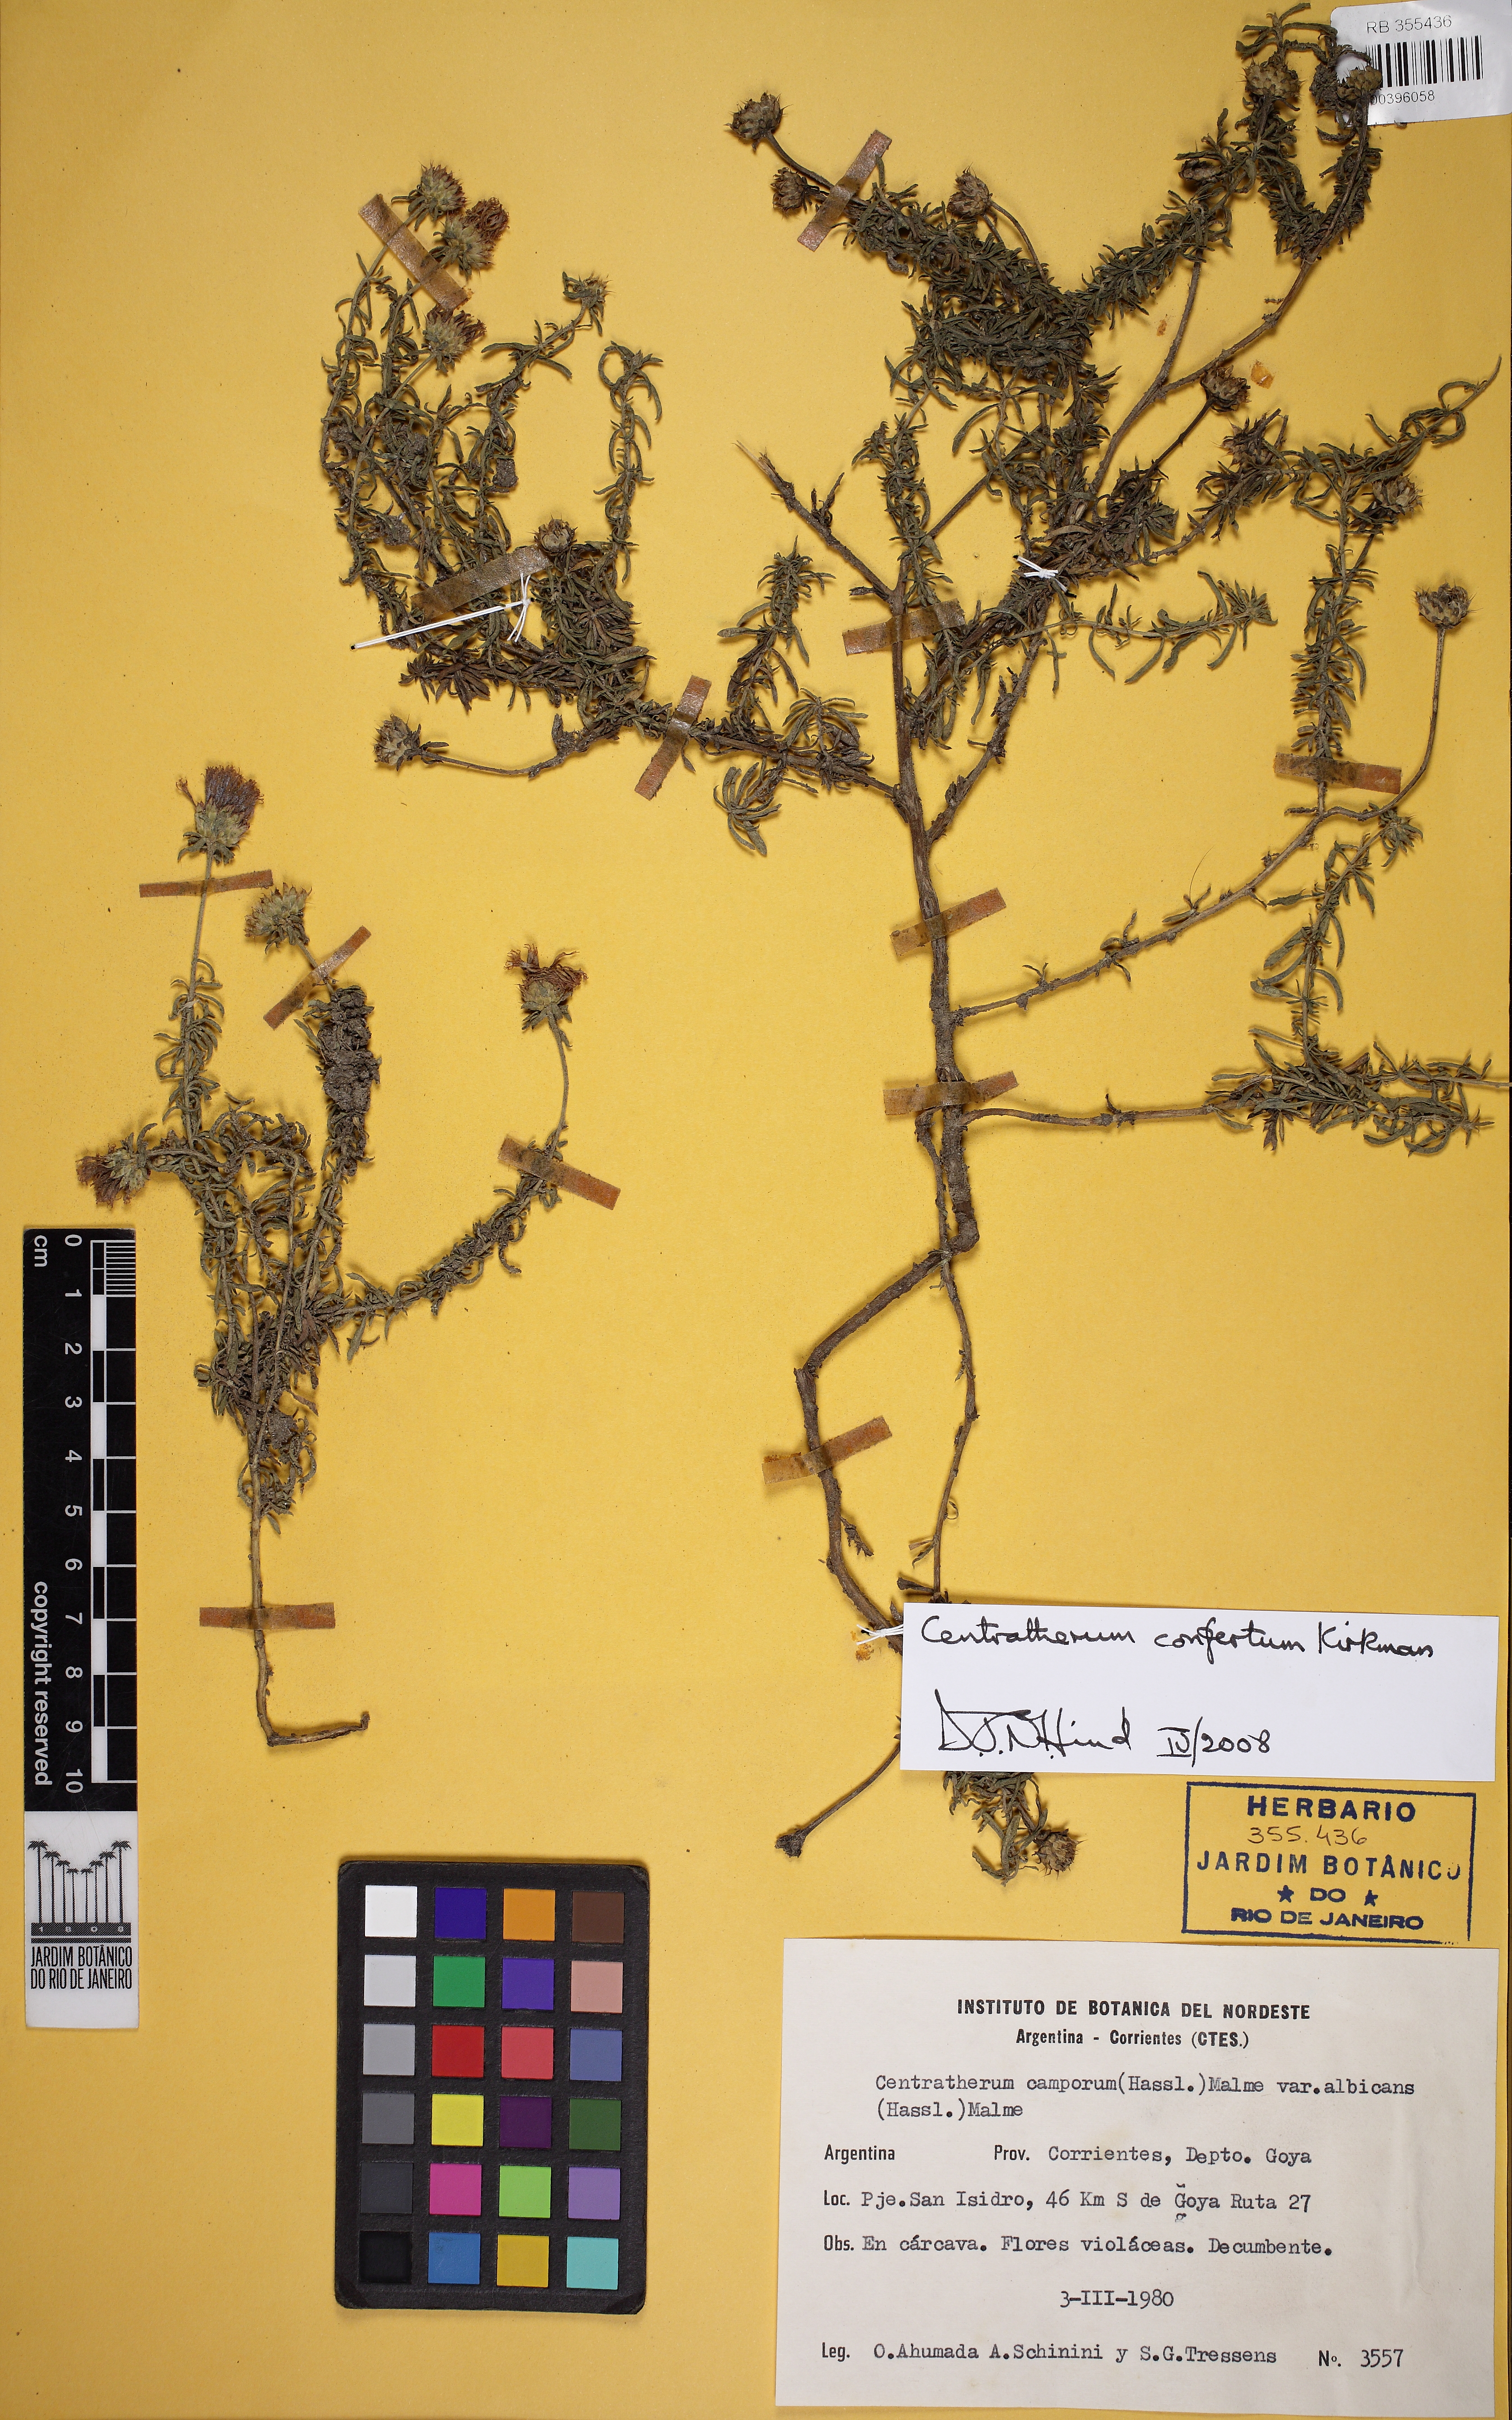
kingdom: Plantae
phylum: Tracheophyta
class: Magnoliopsida
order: Asterales
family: Asteraceae
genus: Centratherum
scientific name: Centratherum confertum
